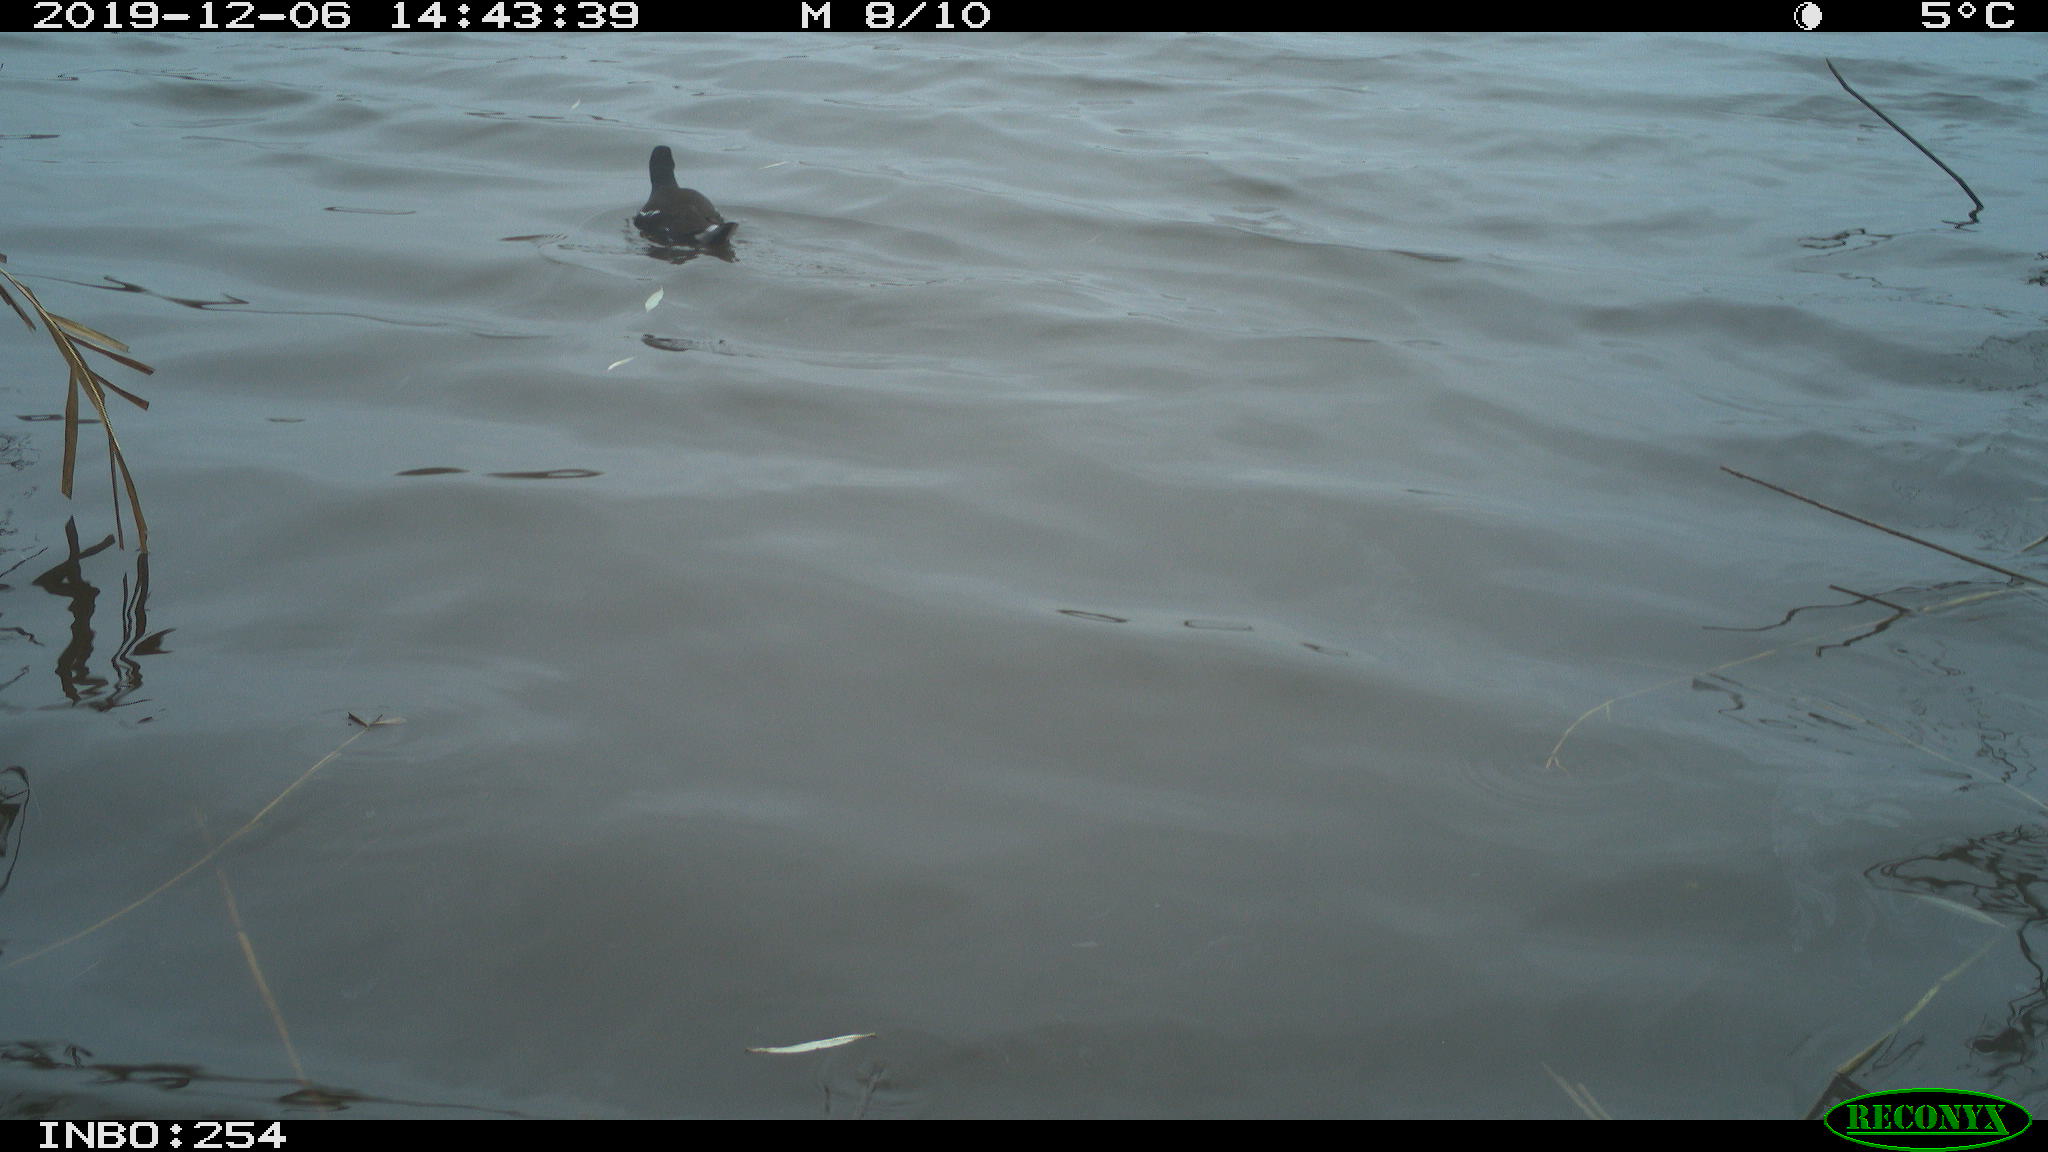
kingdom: Animalia
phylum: Chordata
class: Aves
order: Gruiformes
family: Rallidae
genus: Gallinula
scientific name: Gallinula chloropus
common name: Common moorhen
